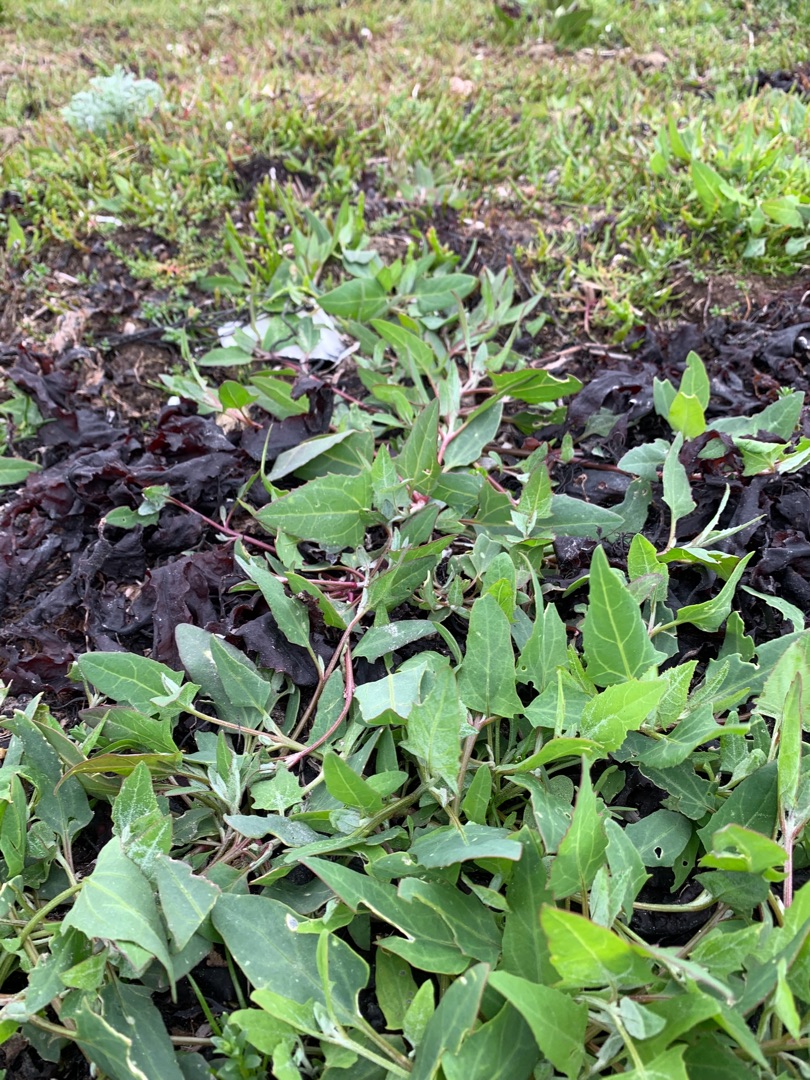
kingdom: Plantae
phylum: Tracheophyta
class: Magnoliopsida
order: Caryophyllales
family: Amaranthaceae
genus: Atriplex
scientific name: Atriplex prostrata
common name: Spyd-mælde
